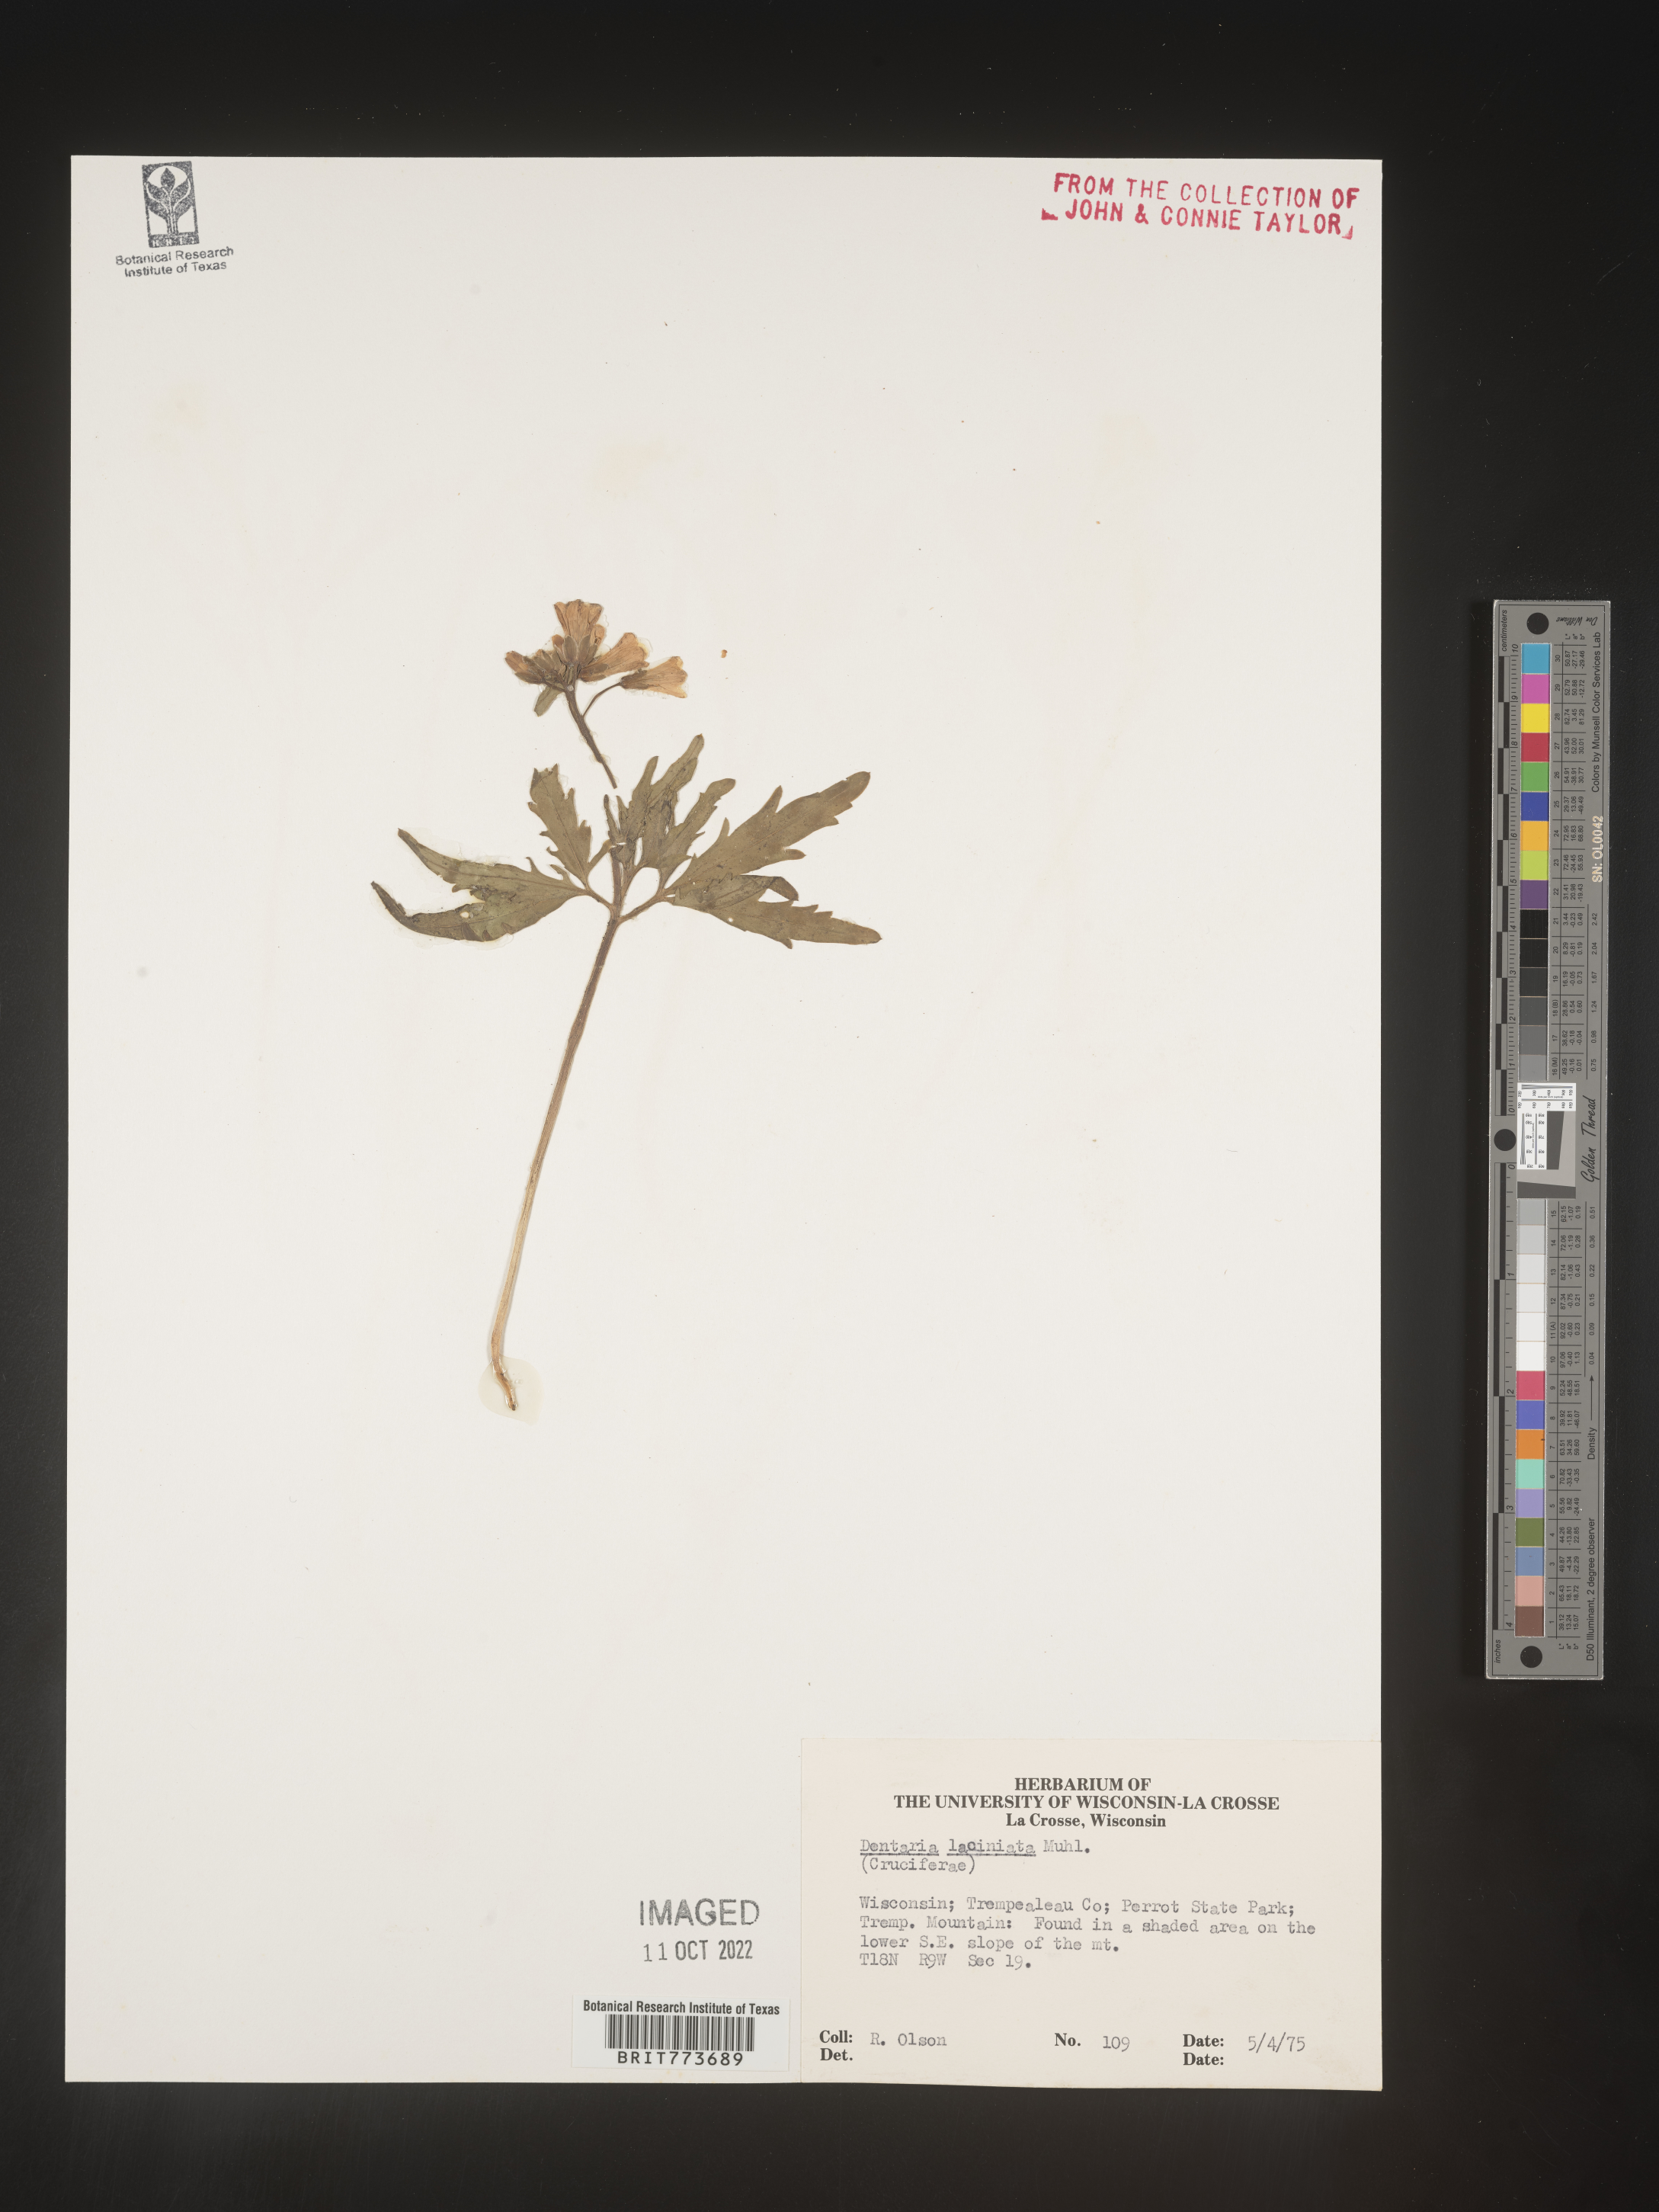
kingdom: Plantae
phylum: Tracheophyta
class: Magnoliopsida
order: Brassicales
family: Brassicaceae
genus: Rorippa
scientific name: Rorippa laciniata
